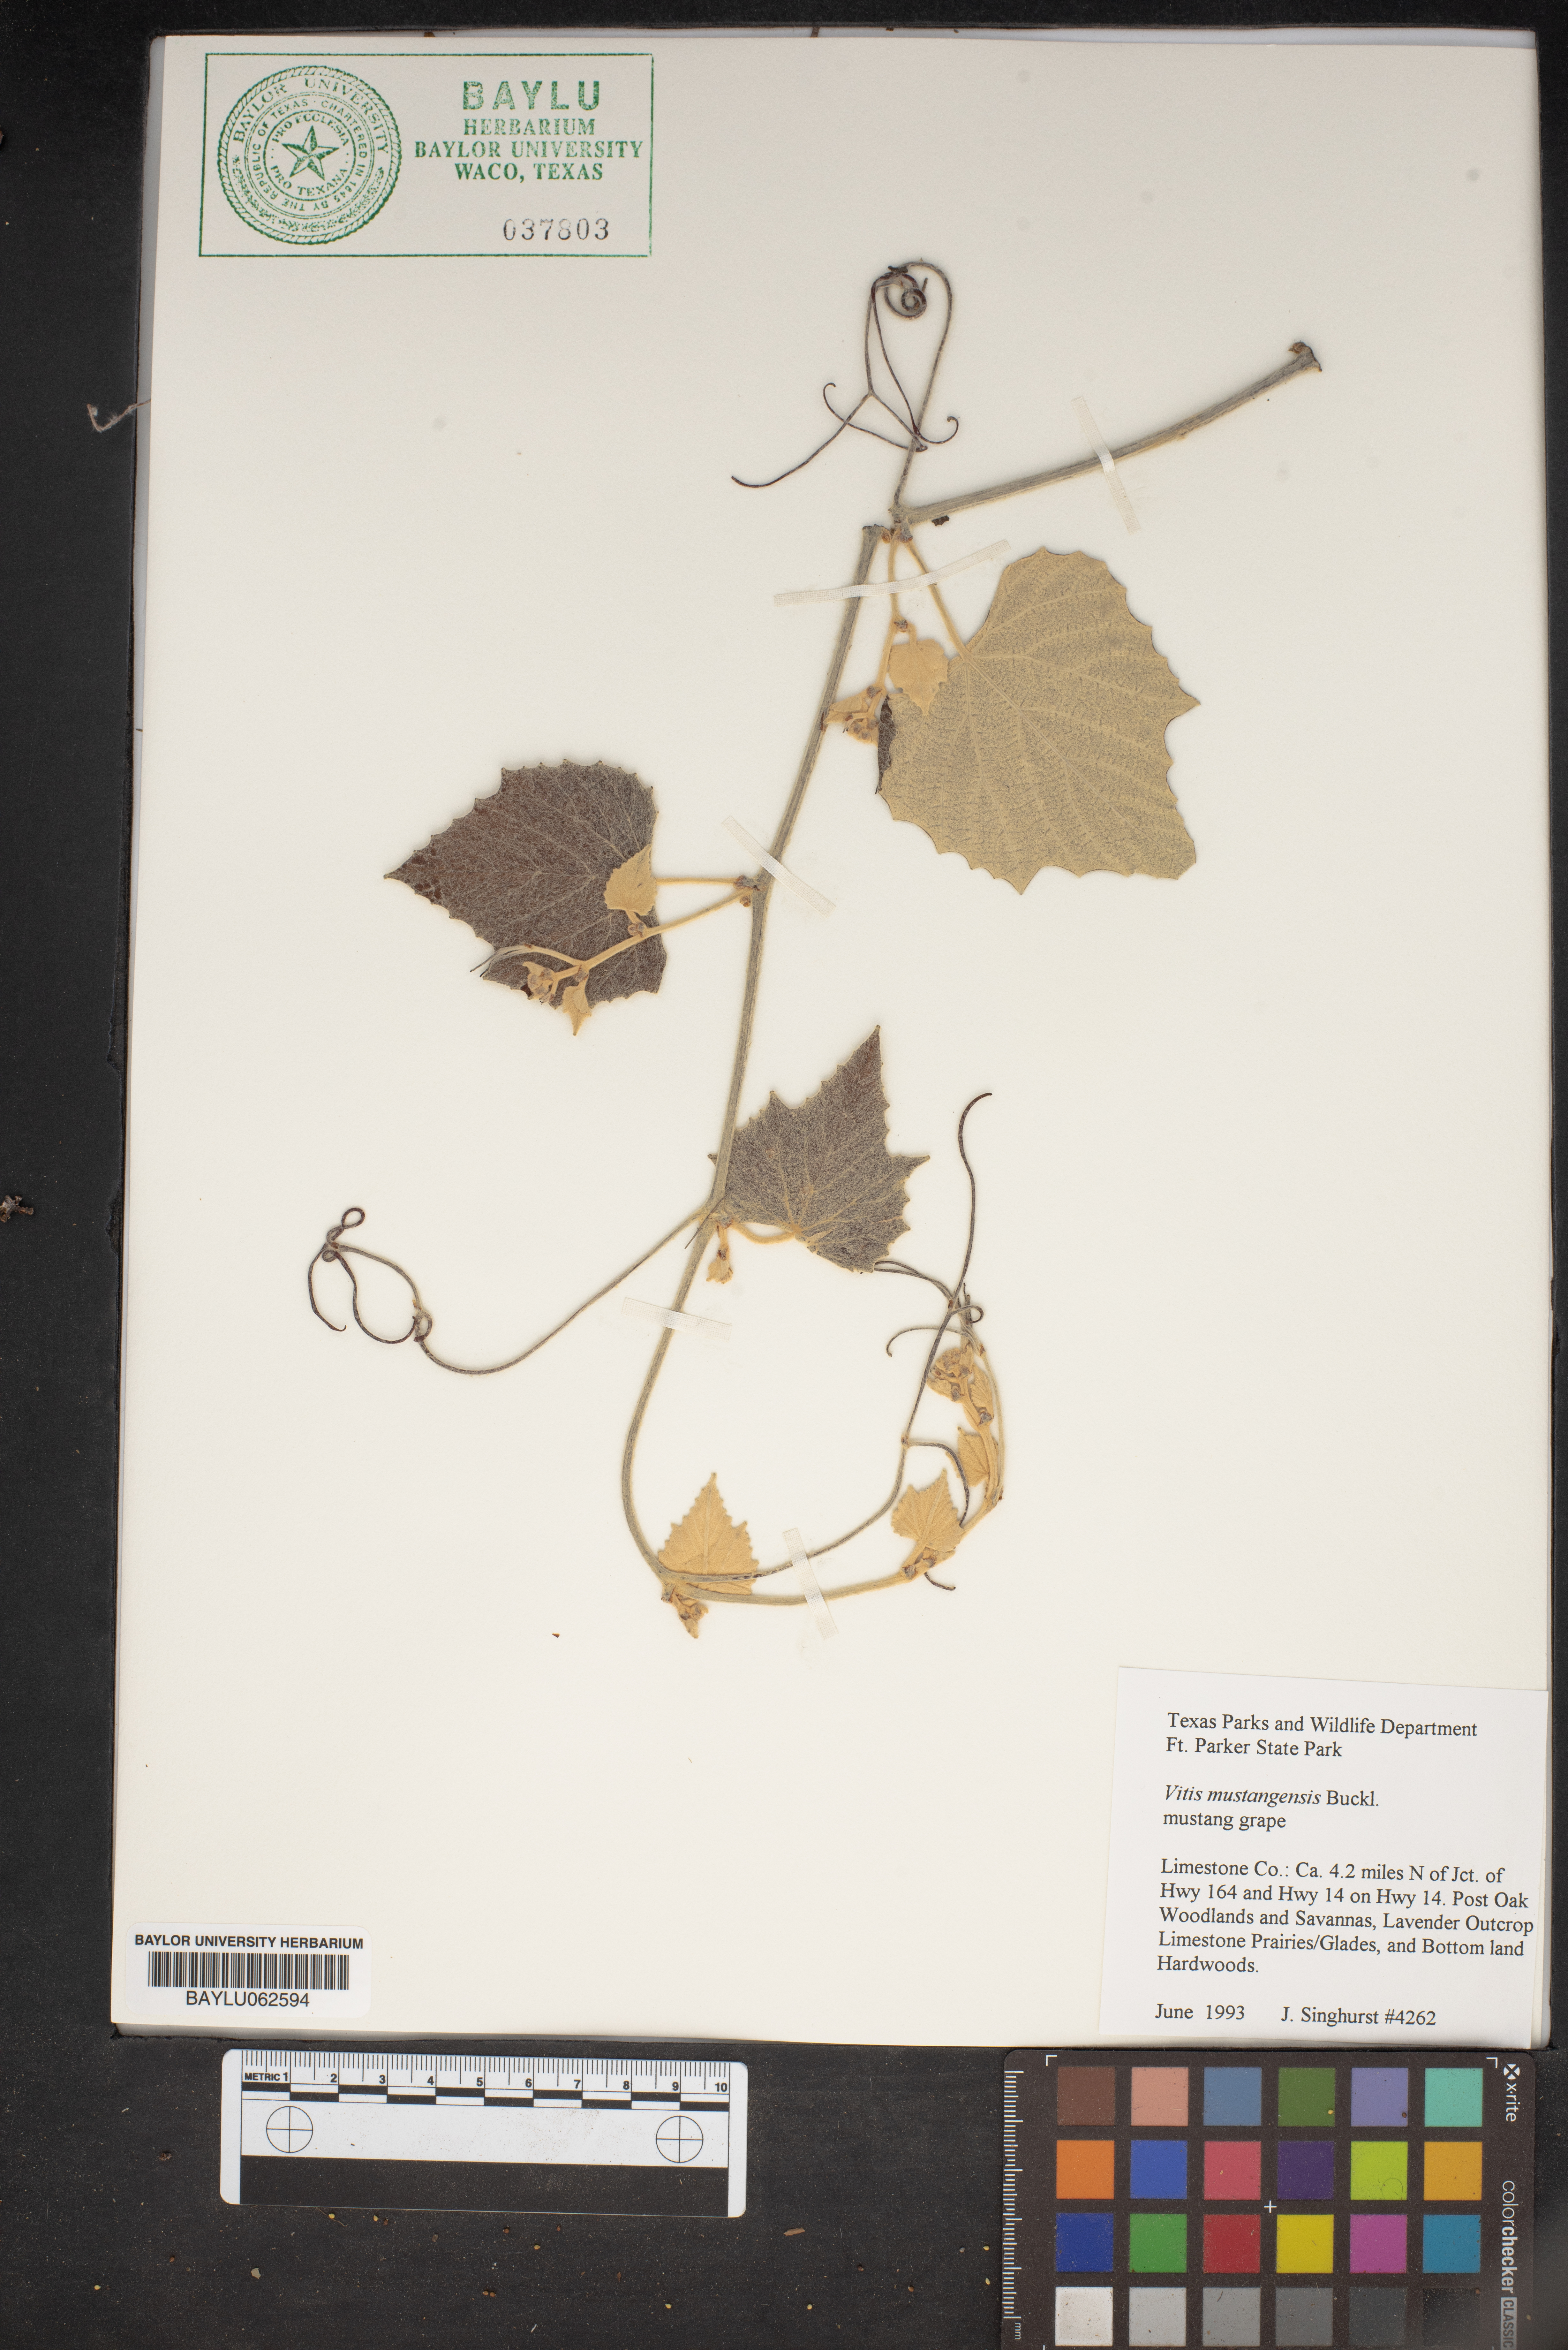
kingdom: Plantae
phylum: Tracheophyta
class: Magnoliopsida
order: Vitales
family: Vitaceae
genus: Vitis
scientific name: Vitis mustangensis
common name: Mustang grape
